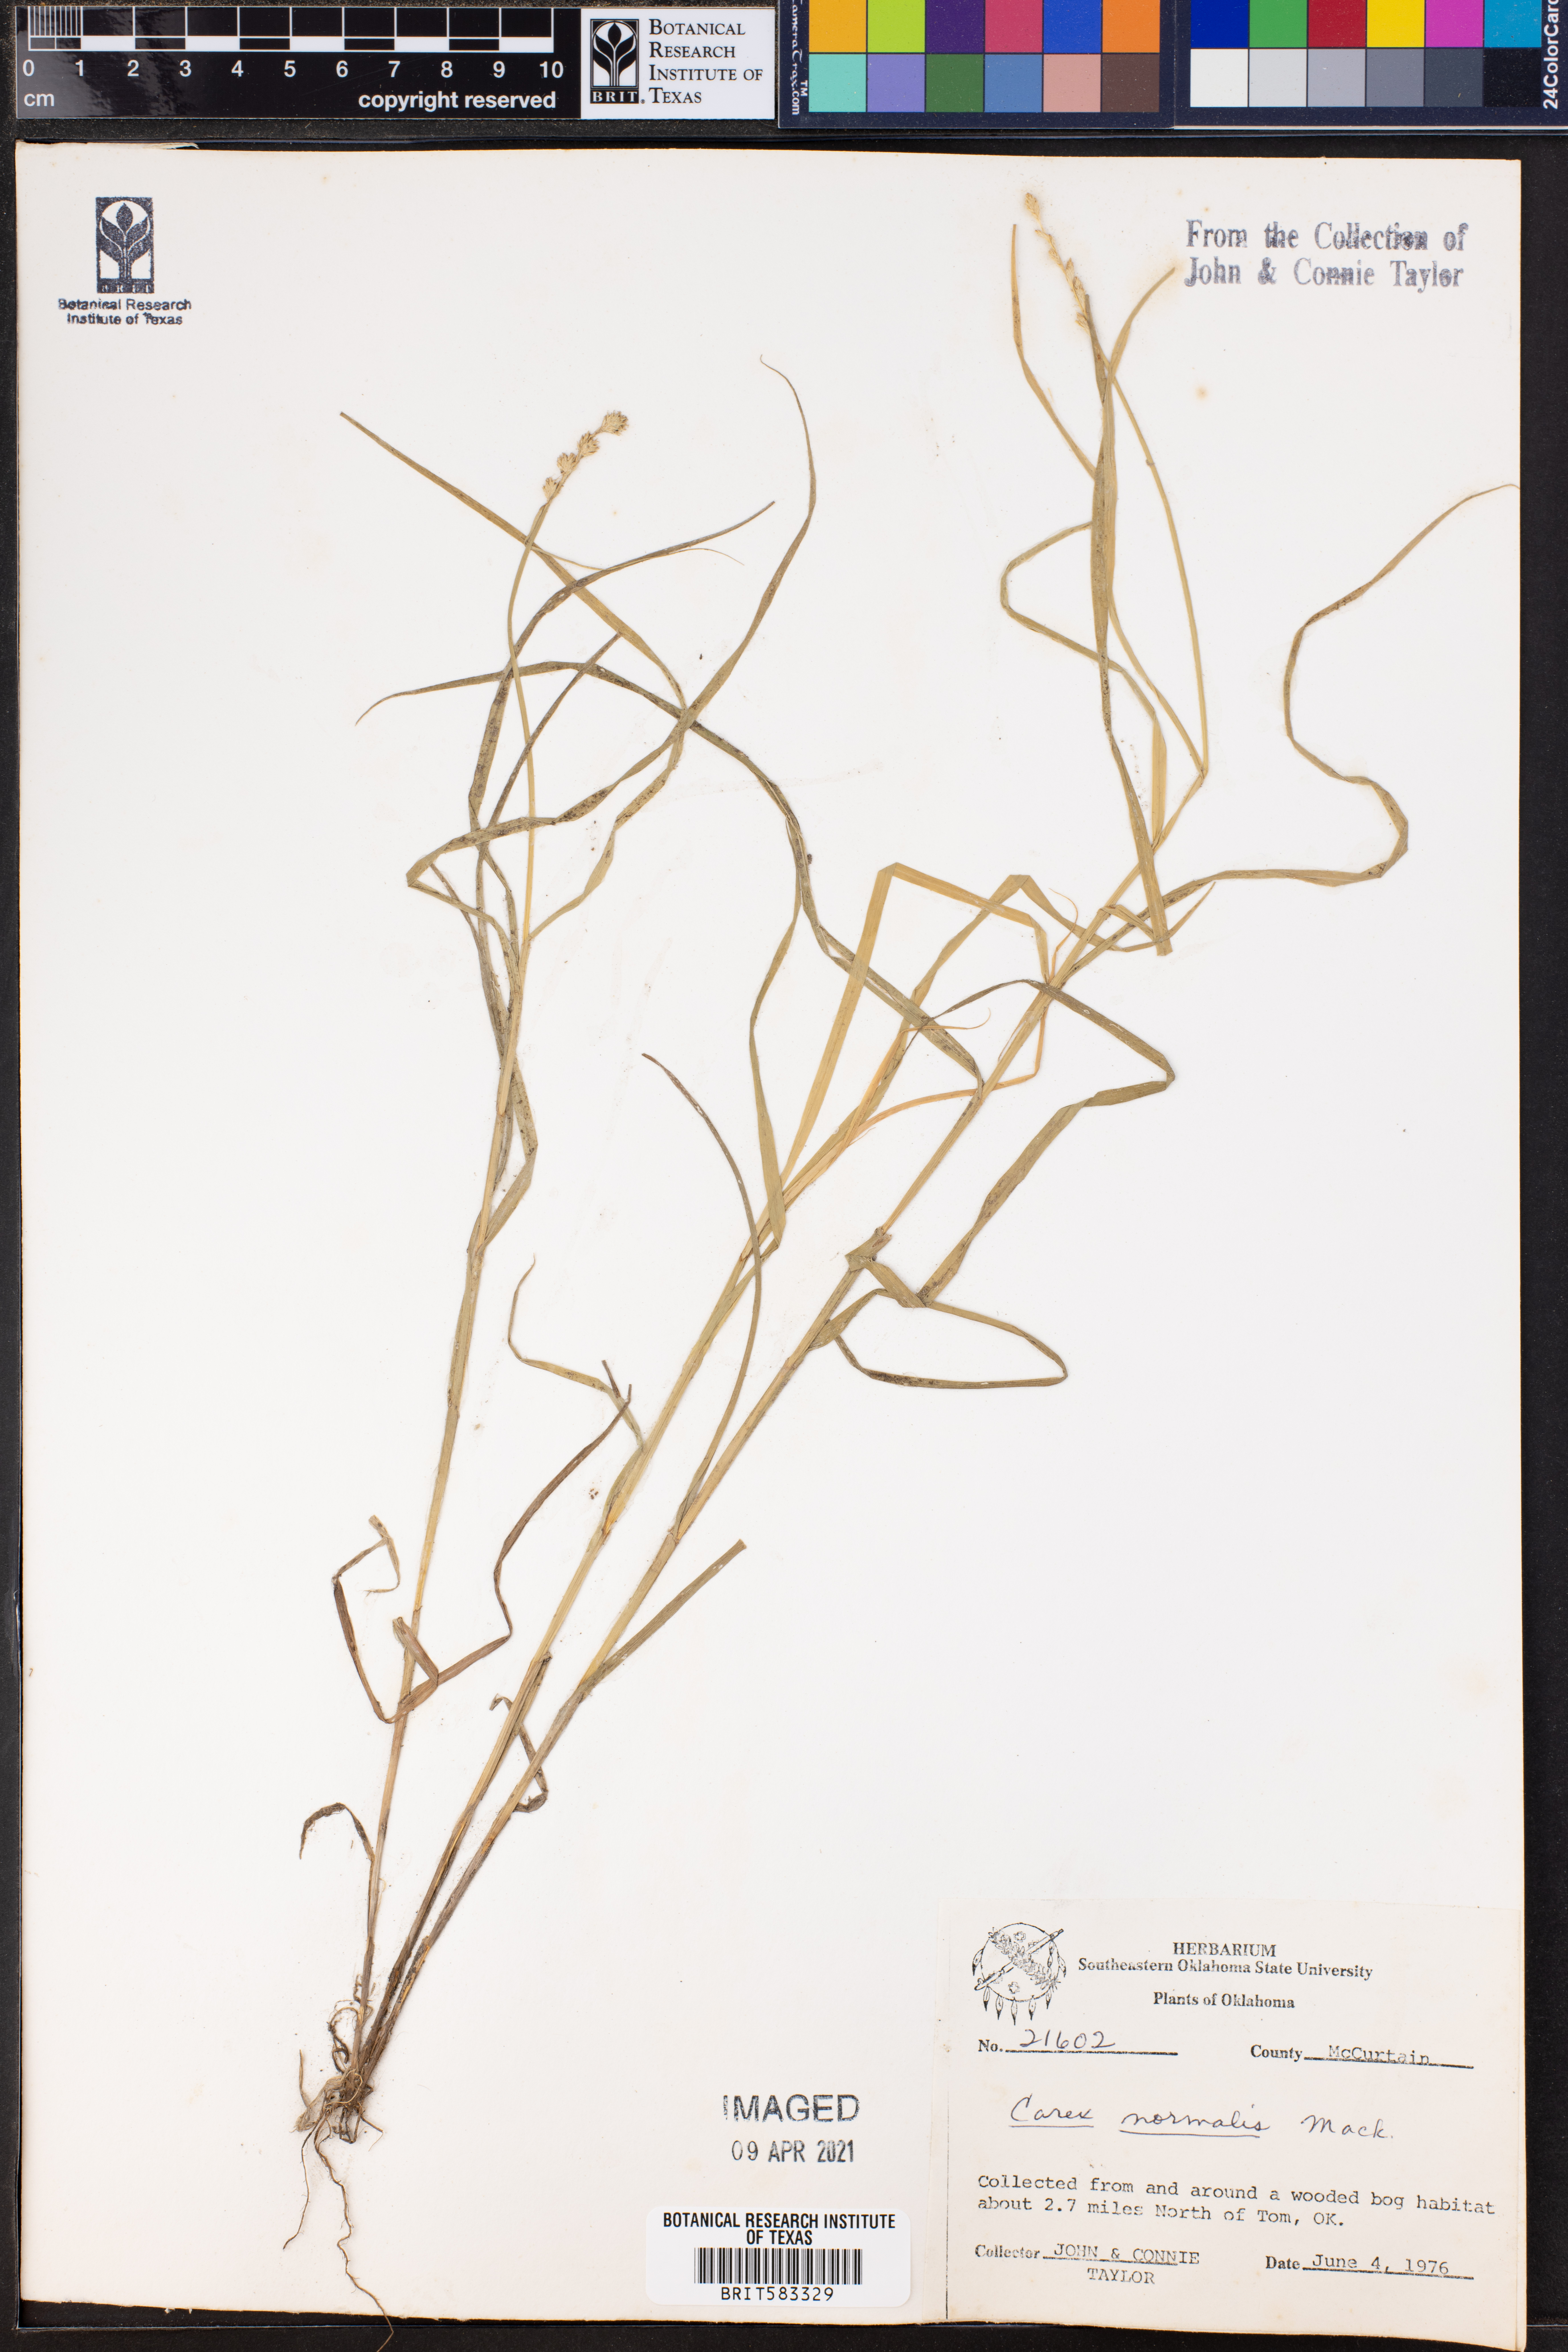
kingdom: Plantae
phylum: Tracheophyta
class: Liliopsida
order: Poales
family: Cyperaceae
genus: Carex
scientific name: Carex normalis
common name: Greater straw sedge
